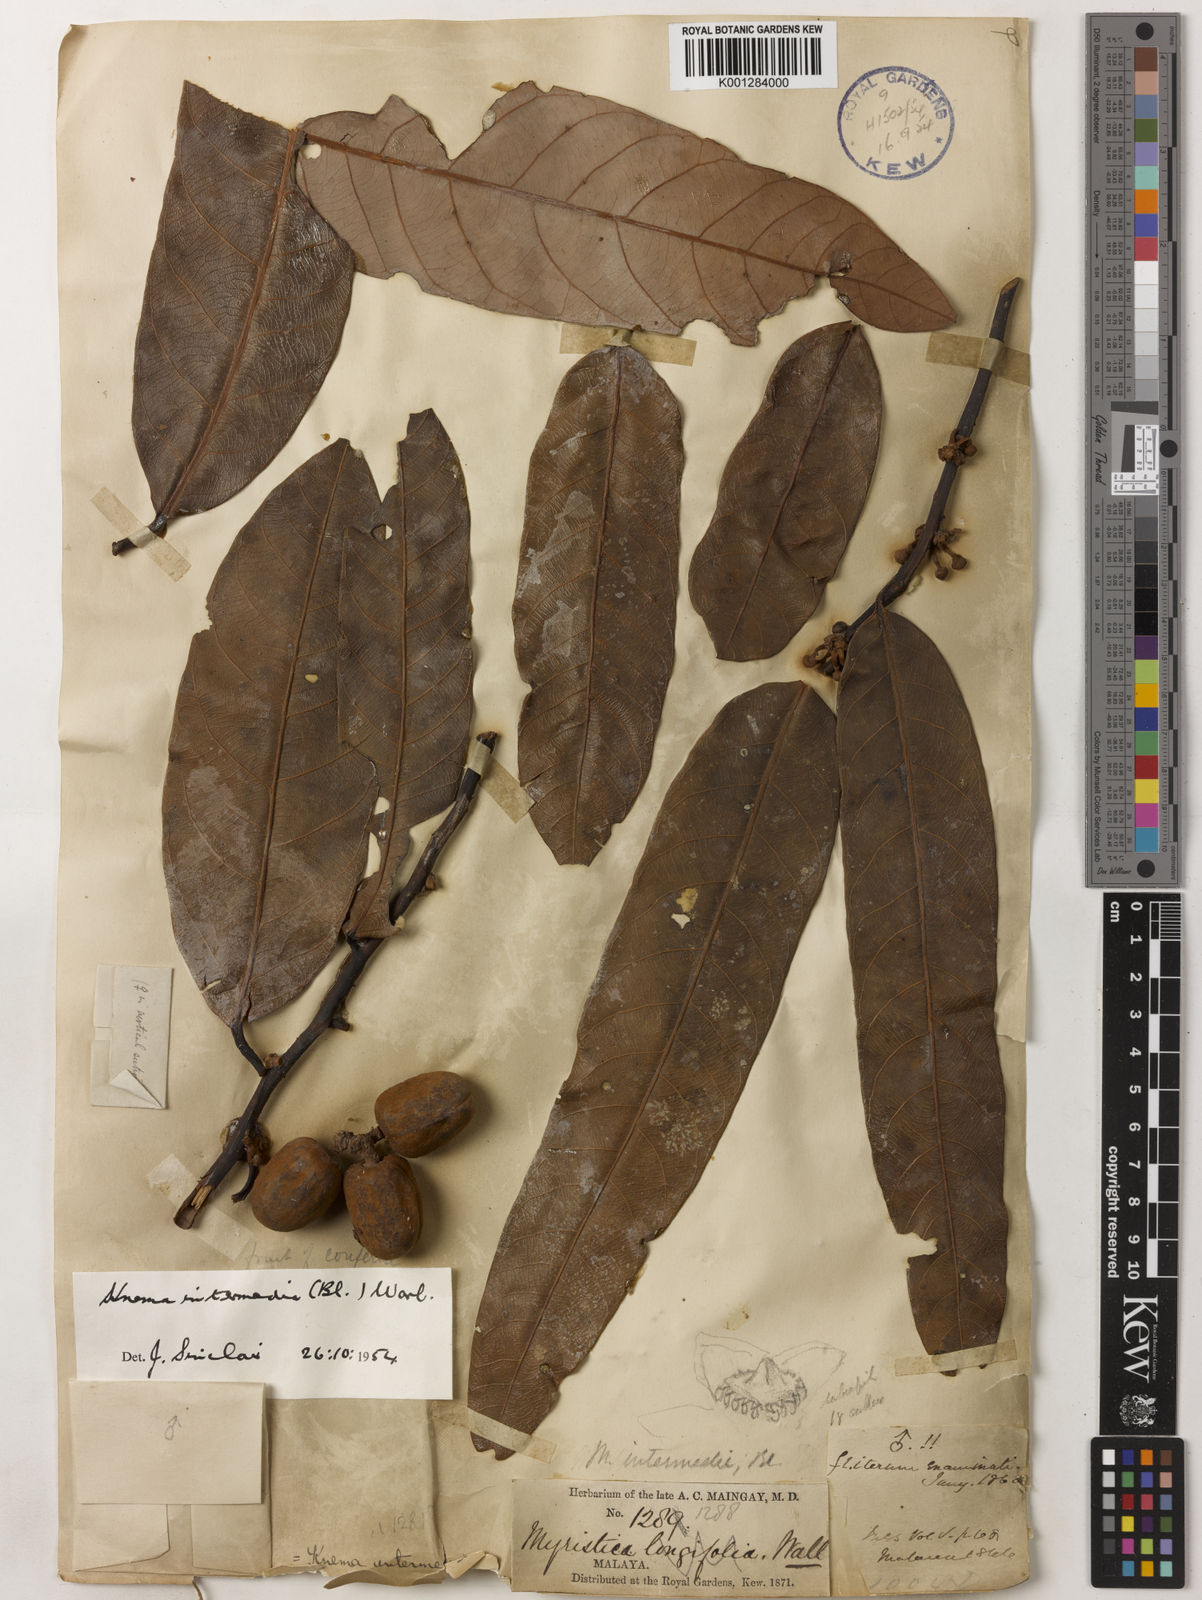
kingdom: Plantae
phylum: Tracheophyta
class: Magnoliopsida
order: Magnoliales
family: Myristicaceae
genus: Knema
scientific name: Knema intermedia
